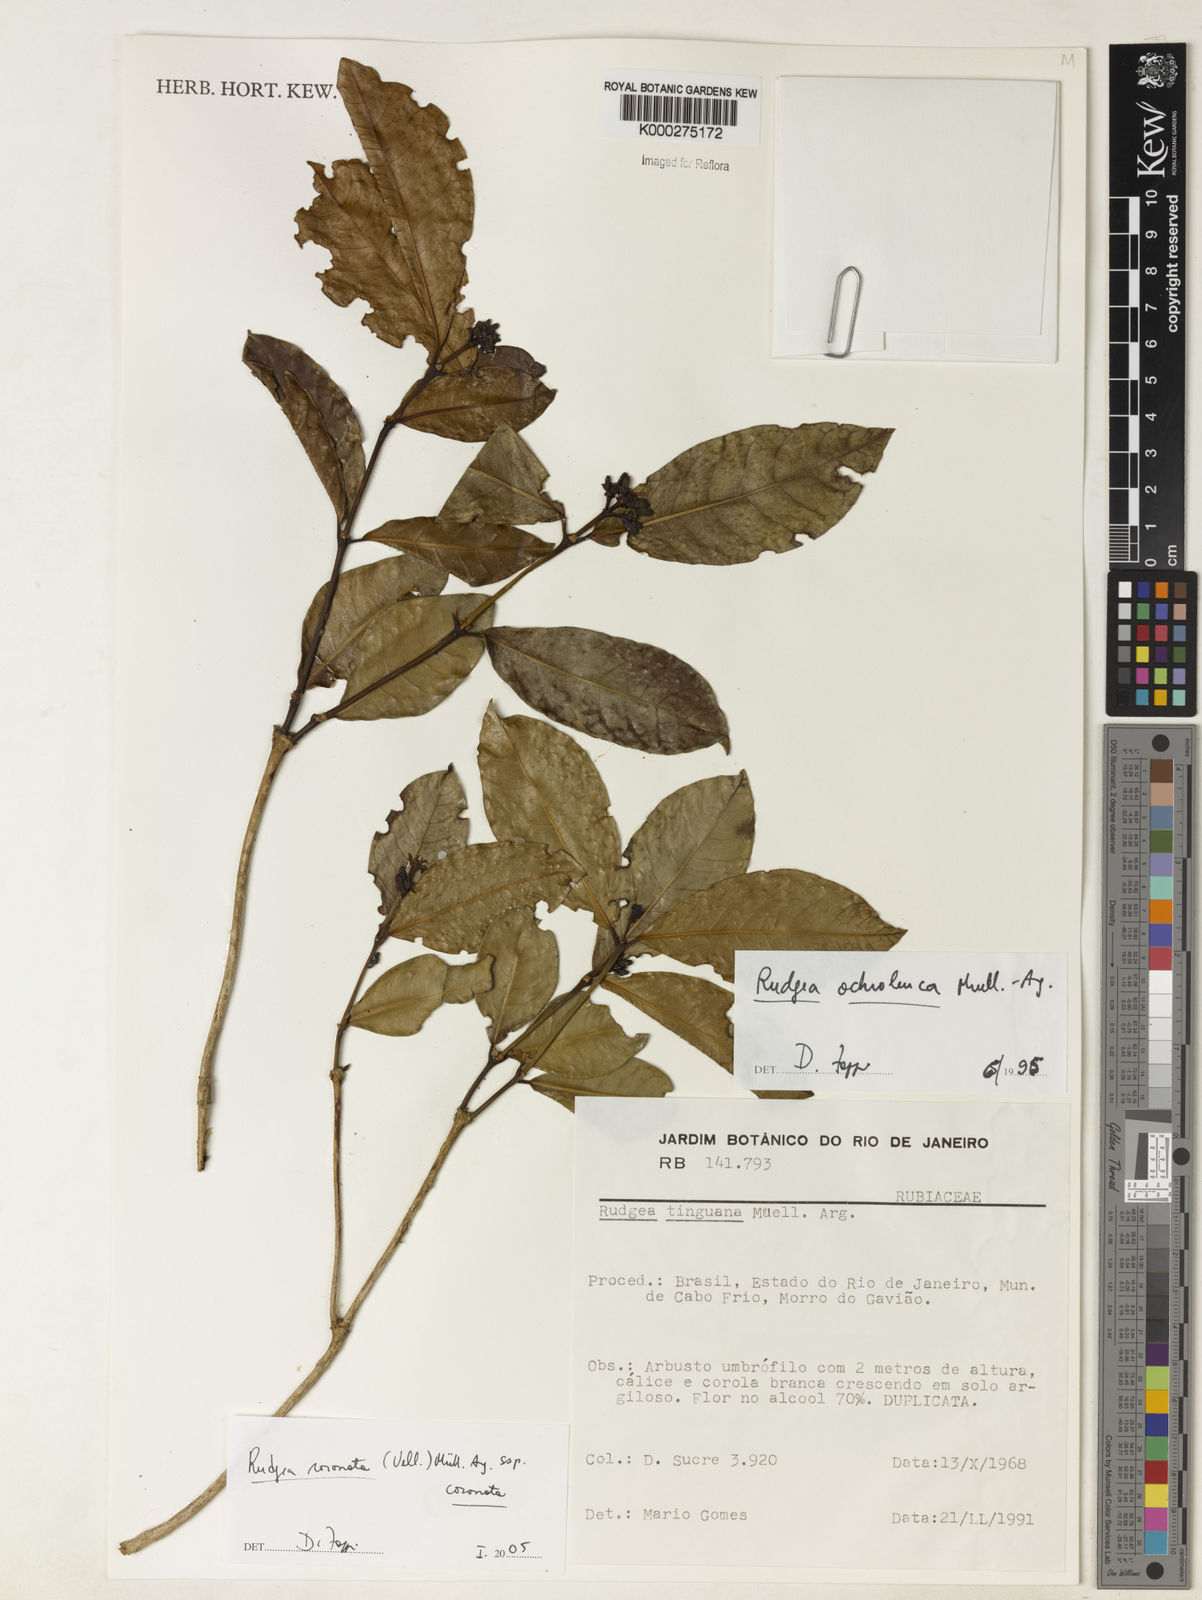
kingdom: Plantae
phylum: Tracheophyta
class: Magnoliopsida
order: Gentianales
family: Rubiaceae
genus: Rudgea
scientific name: Rudgea coronata
